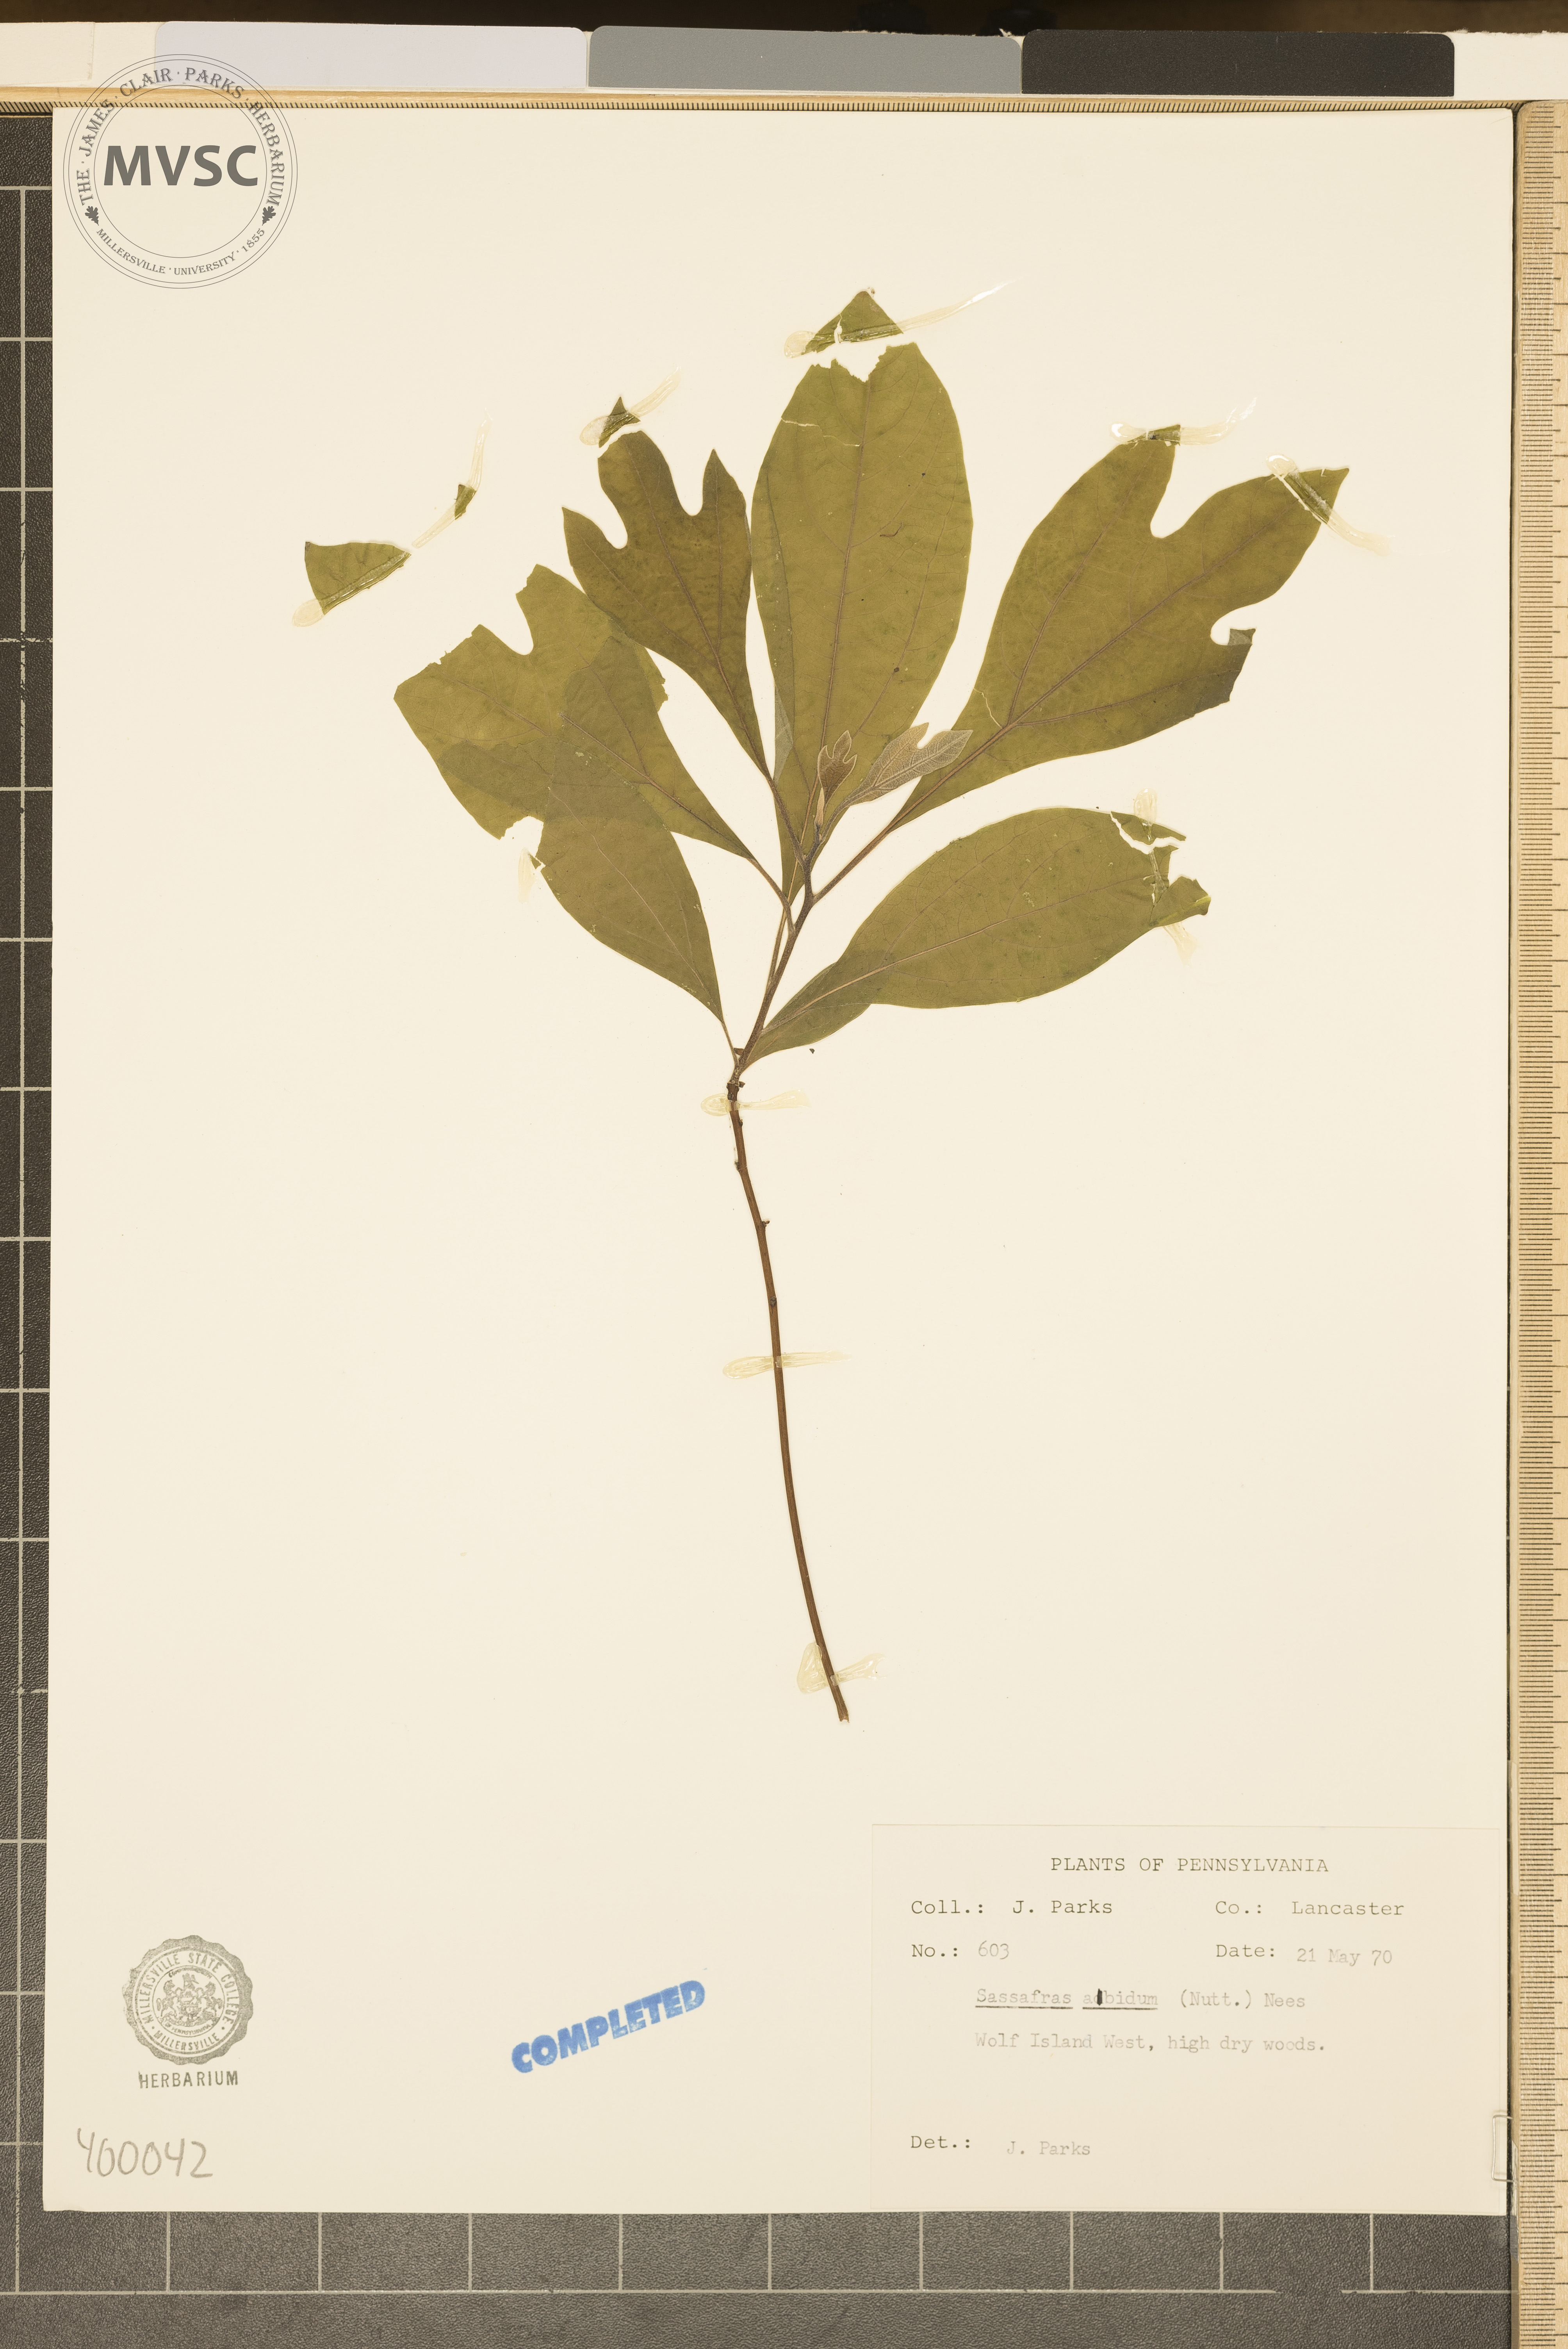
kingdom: Plantae
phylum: Tracheophyta
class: Magnoliopsida
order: Laurales
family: Lauraceae
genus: Sassafras
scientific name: Sassafras albidum
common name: sassafras
